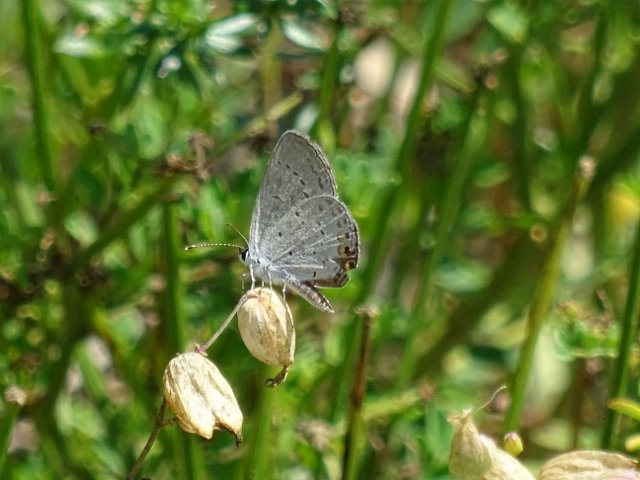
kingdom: Animalia
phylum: Arthropoda
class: Insecta
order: Lepidoptera
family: Lycaenidae
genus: Elkalyce
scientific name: Elkalyce comyntas
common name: Eastern Tailed-Blue
